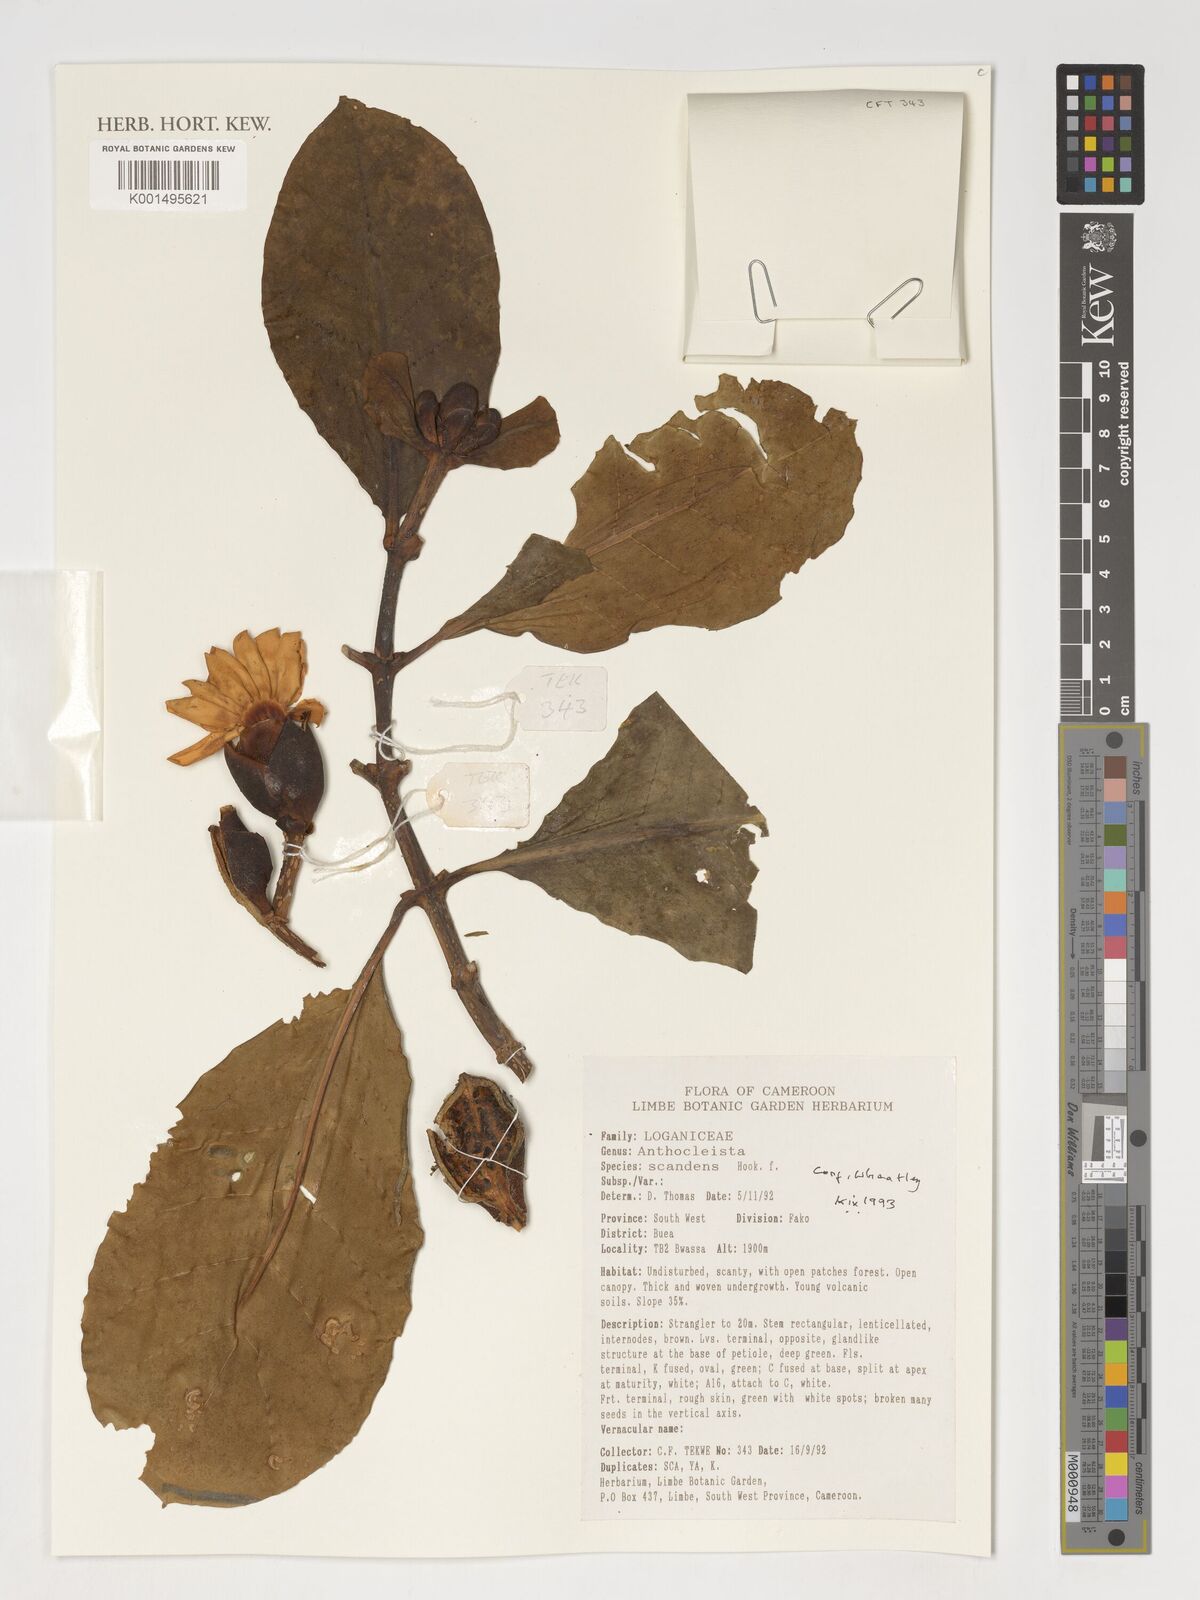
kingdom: Plantae
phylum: Tracheophyta
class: Magnoliopsida
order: Gentianales
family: Gentianaceae
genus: Anthocleista
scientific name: Anthocleista scandens
